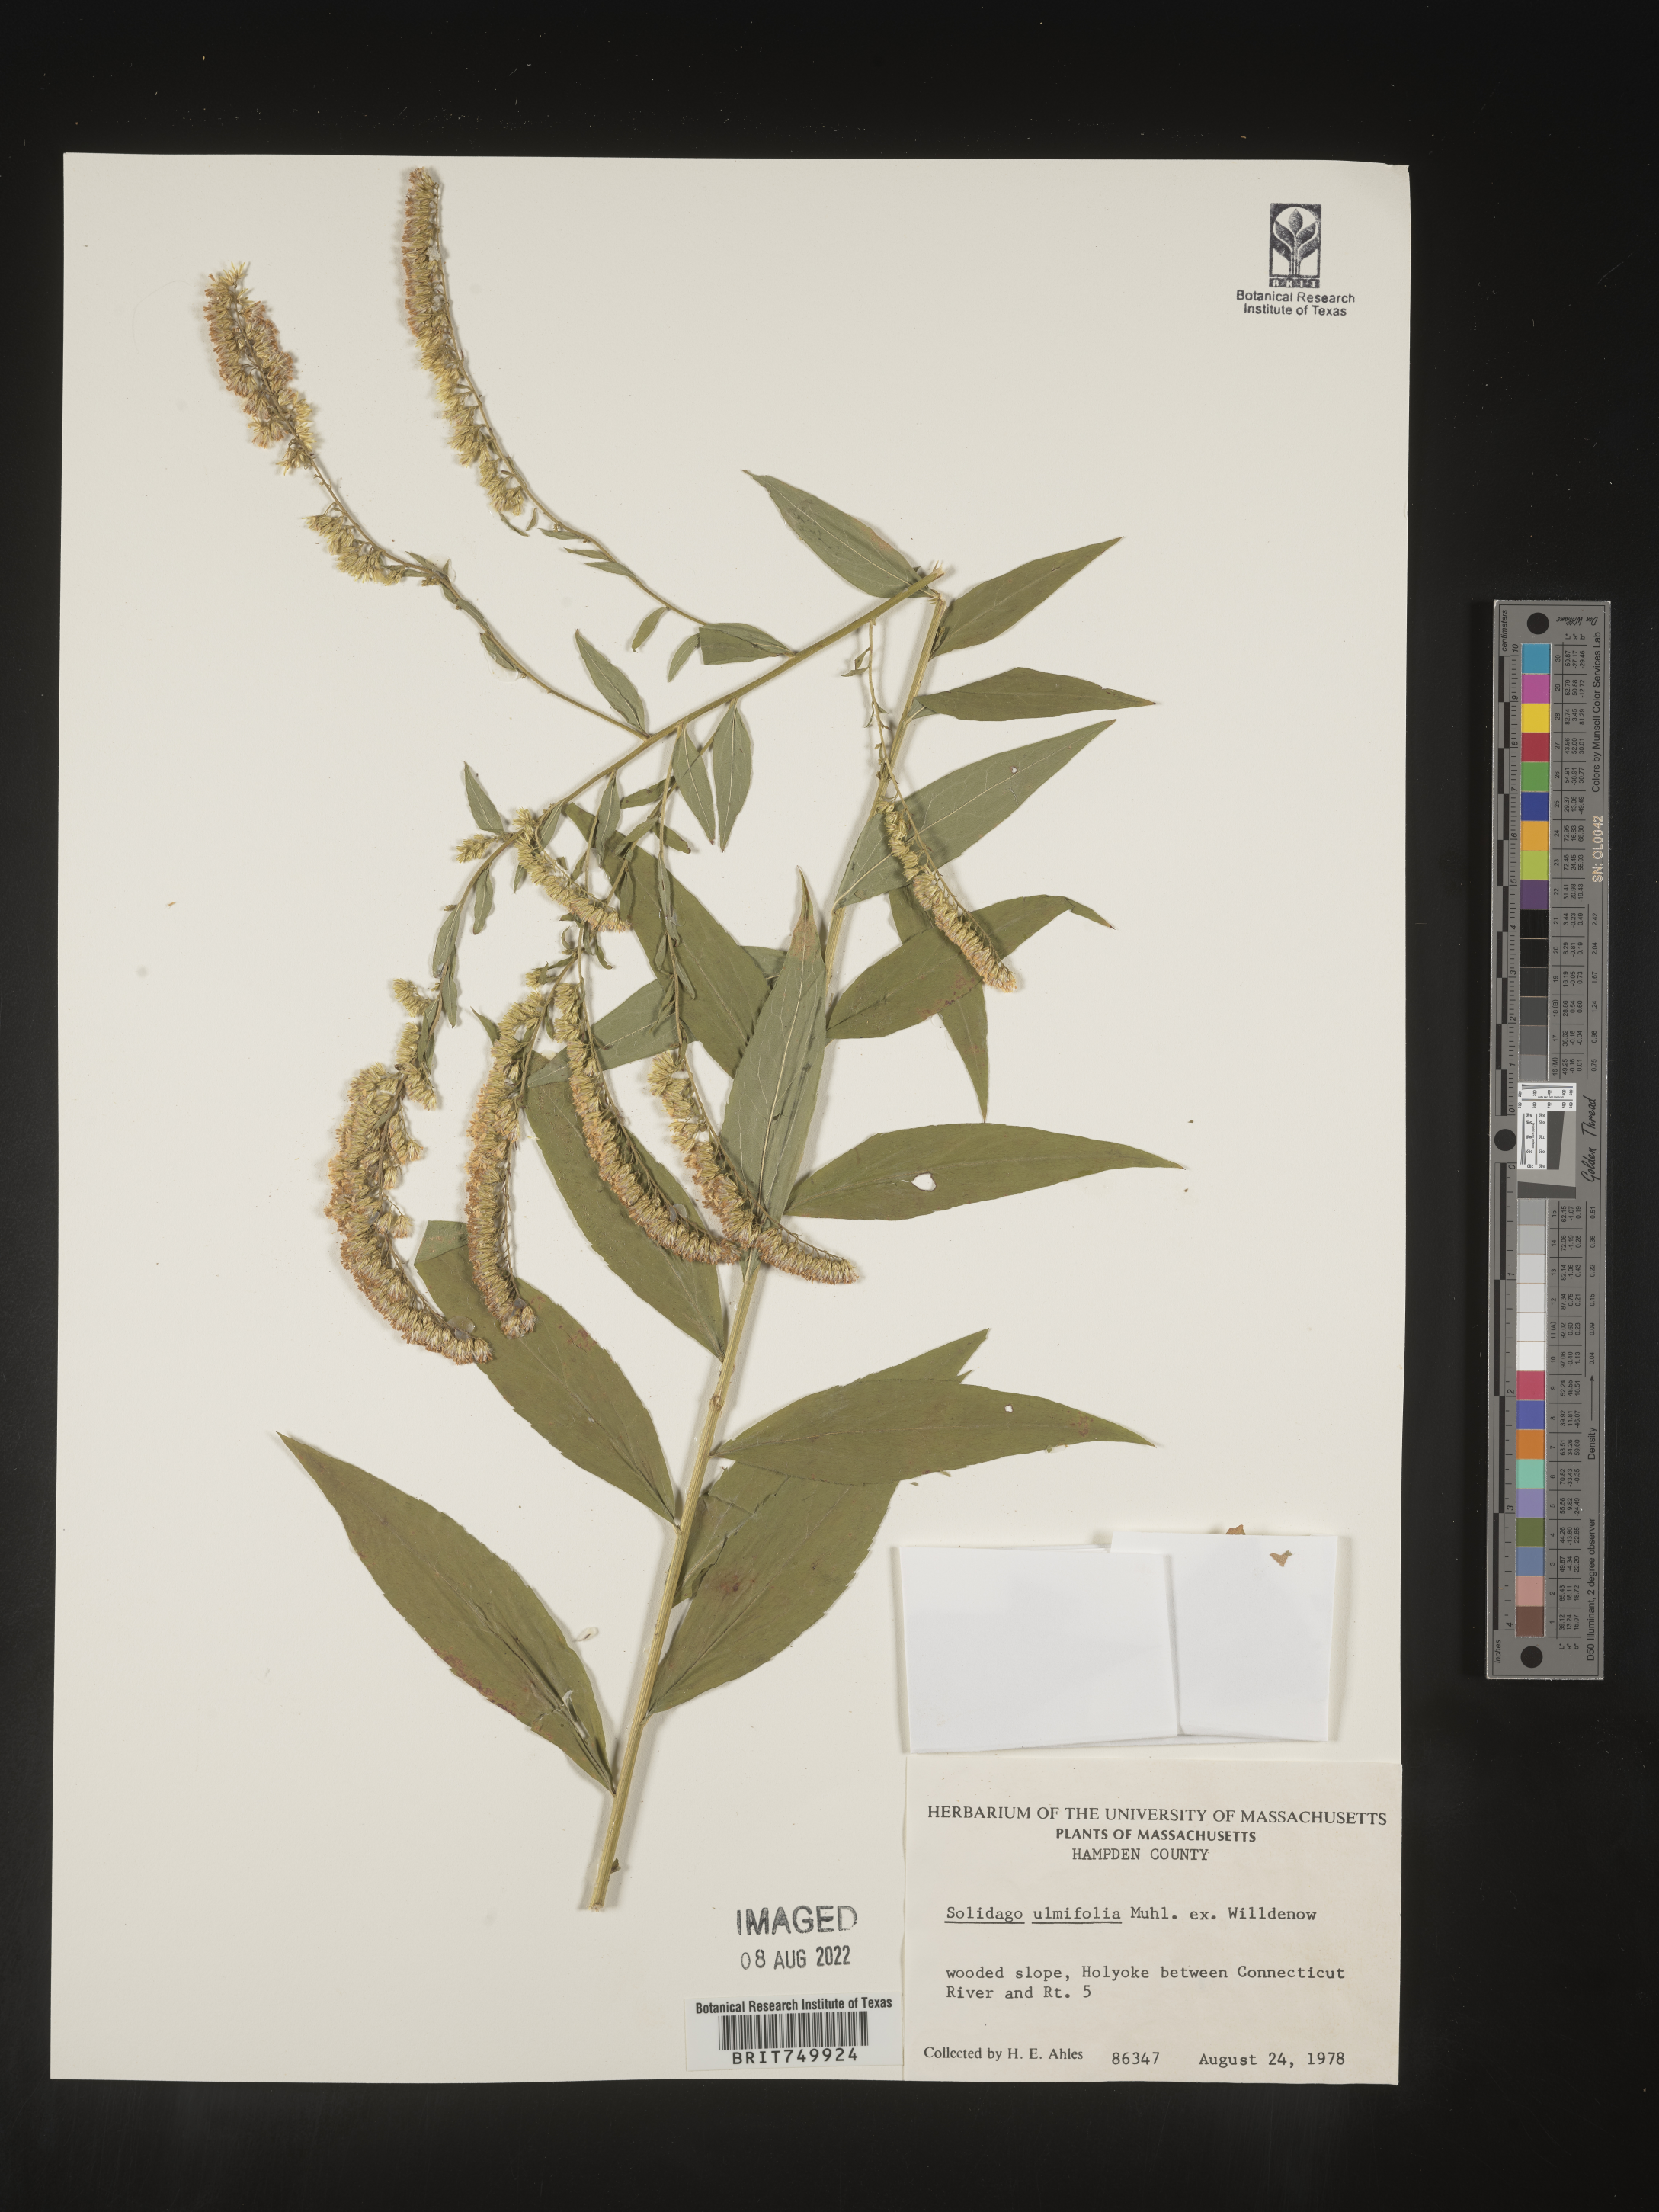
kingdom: Plantae
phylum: Tracheophyta
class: Magnoliopsida
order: Asterales
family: Asteraceae
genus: Solidago
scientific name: Solidago ulmifolia
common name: Elm-leaf goldenrod
